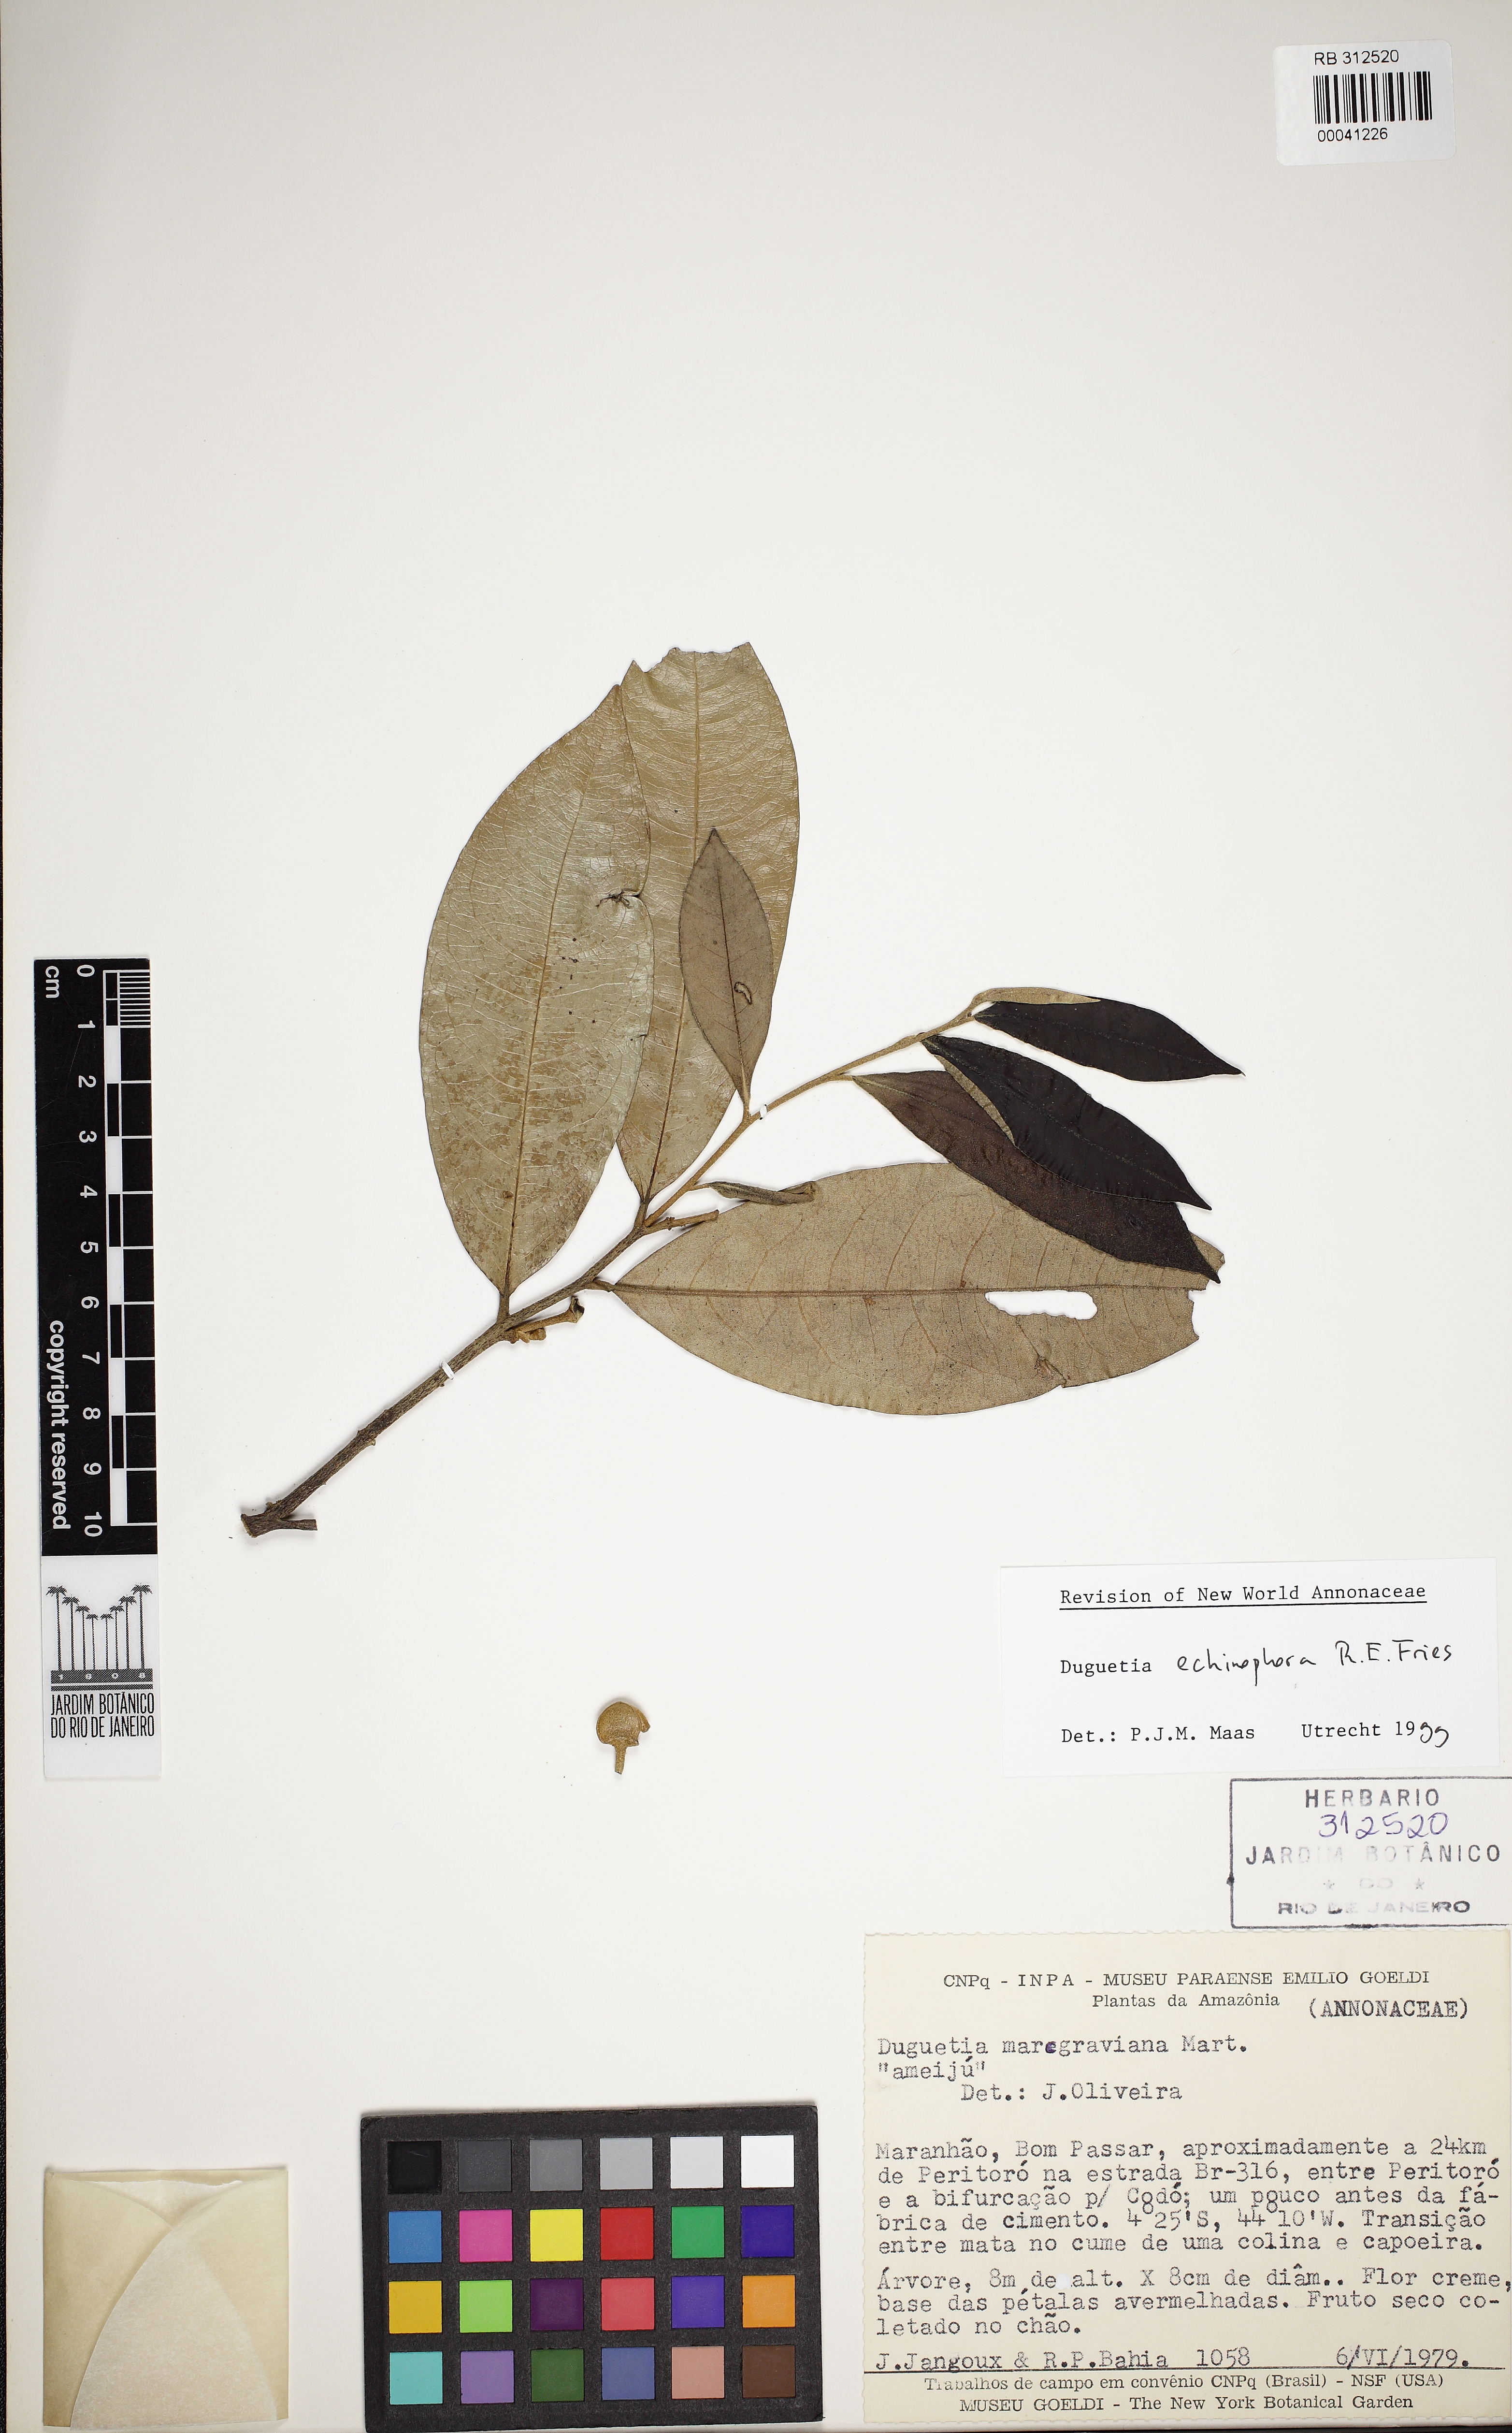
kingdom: Plantae
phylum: Tracheophyta
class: Magnoliopsida
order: Magnoliales
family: Annonaceae
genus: Duguetia
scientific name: Duguetia echinophora
